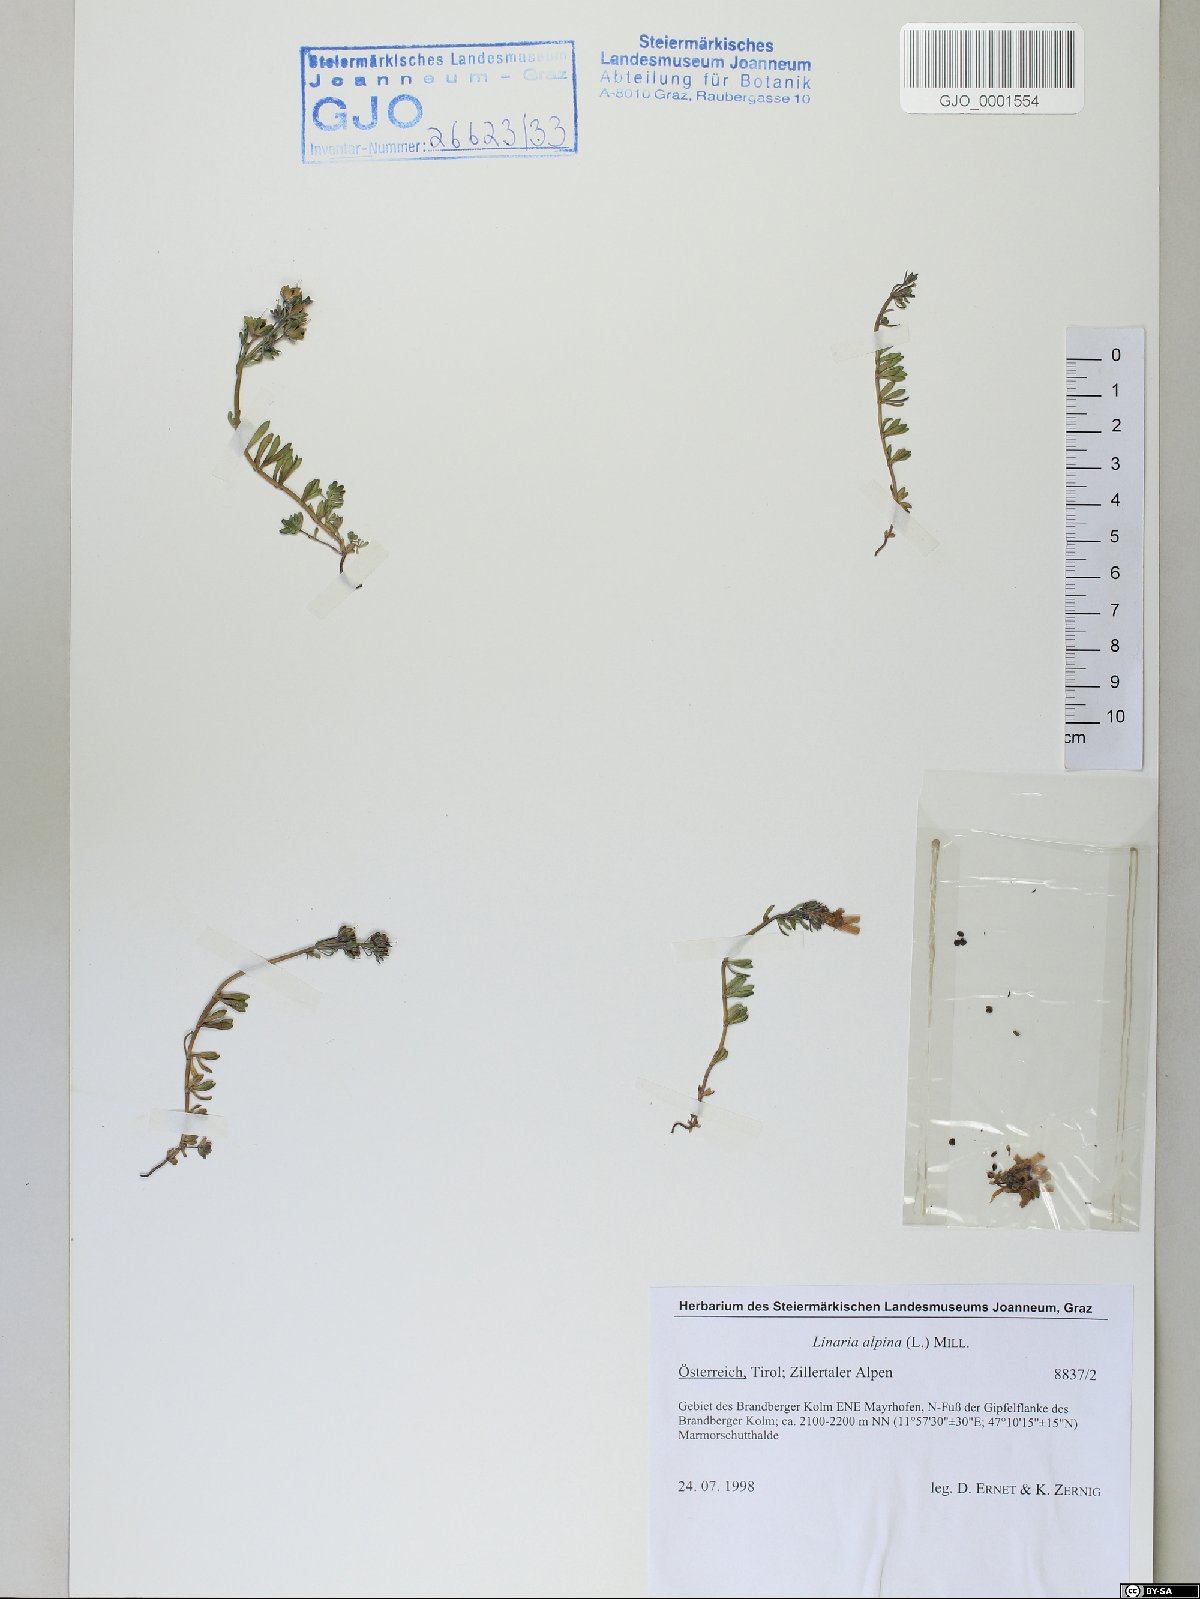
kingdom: Plantae
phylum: Tracheophyta
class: Magnoliopsida
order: Lamiales
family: Plantaginaceae
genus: Linaria
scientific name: Linaria alpina
